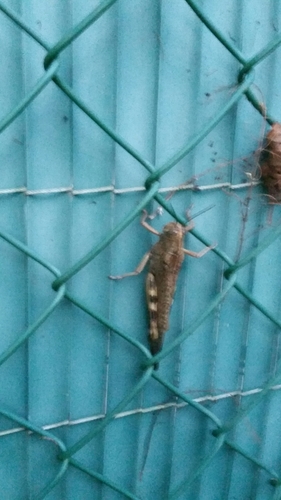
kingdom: Animalia
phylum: Arthropoda
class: Insecta
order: Orthoptera
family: Acrididae
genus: Anacridium
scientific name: Anacridium aegyptium
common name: Egyptian grasshopper
